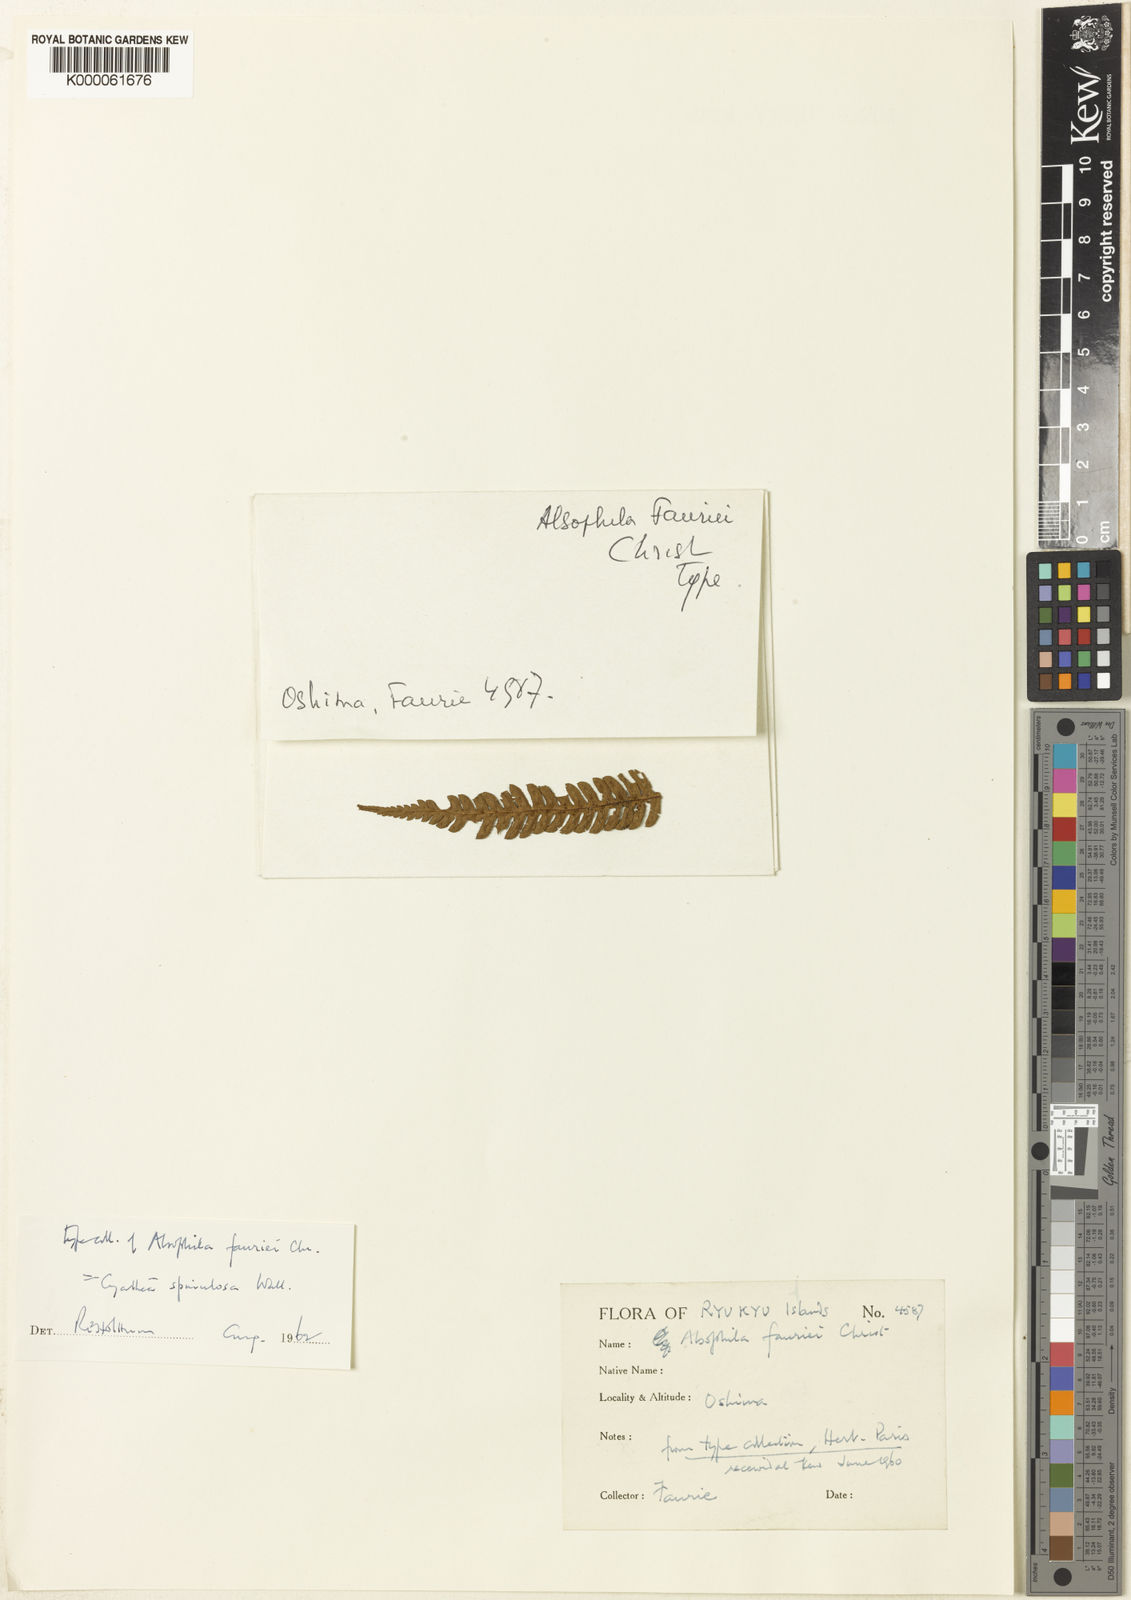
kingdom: Plantae
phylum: Tracheophyta
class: Polypodiopsida
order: Cyatheales
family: Cyatheaceae
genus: Cyathea
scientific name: Cyathea
